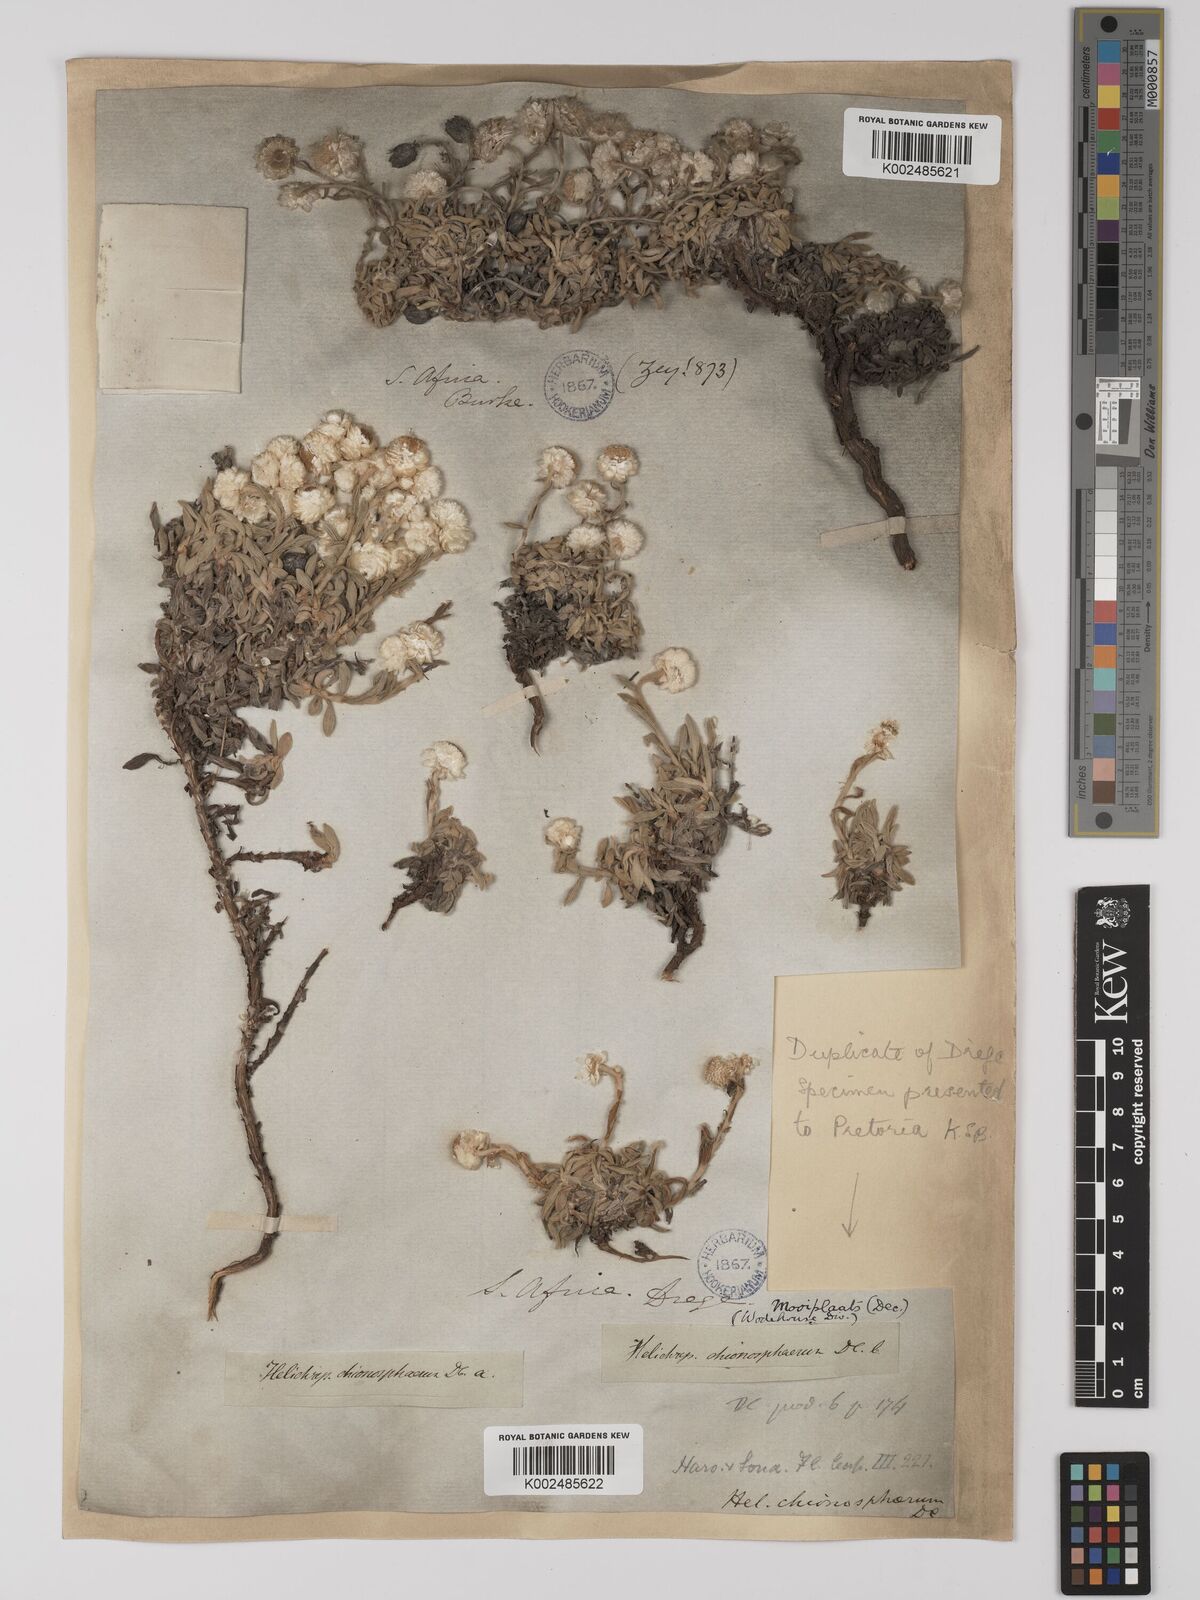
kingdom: Plantae
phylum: Tracheophyta
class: Magnoliopsida
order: Asterales
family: Asteraceae
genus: Helichrysum
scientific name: Helichrysum chionosphaerum
